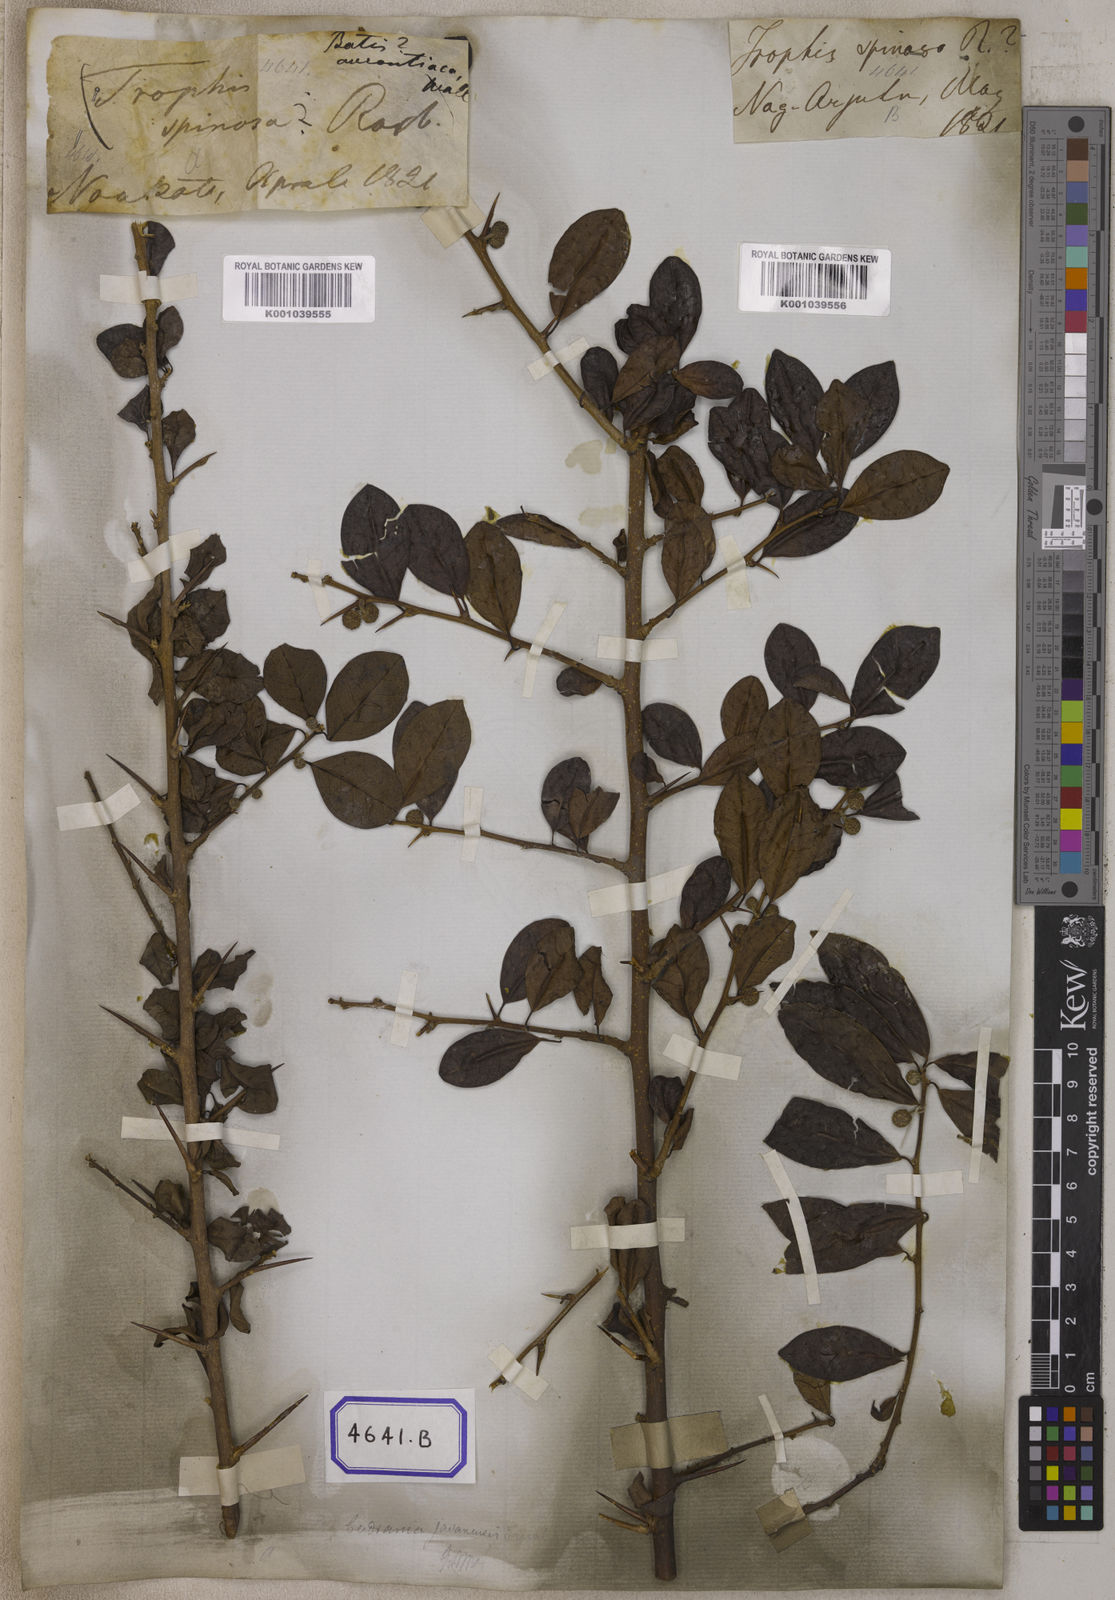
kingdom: Plantae
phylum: Tracheophyta
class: Magnoliopsida
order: Rosales
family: Moraceae
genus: Taxotrophis
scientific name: Taxotrophis taxoides
